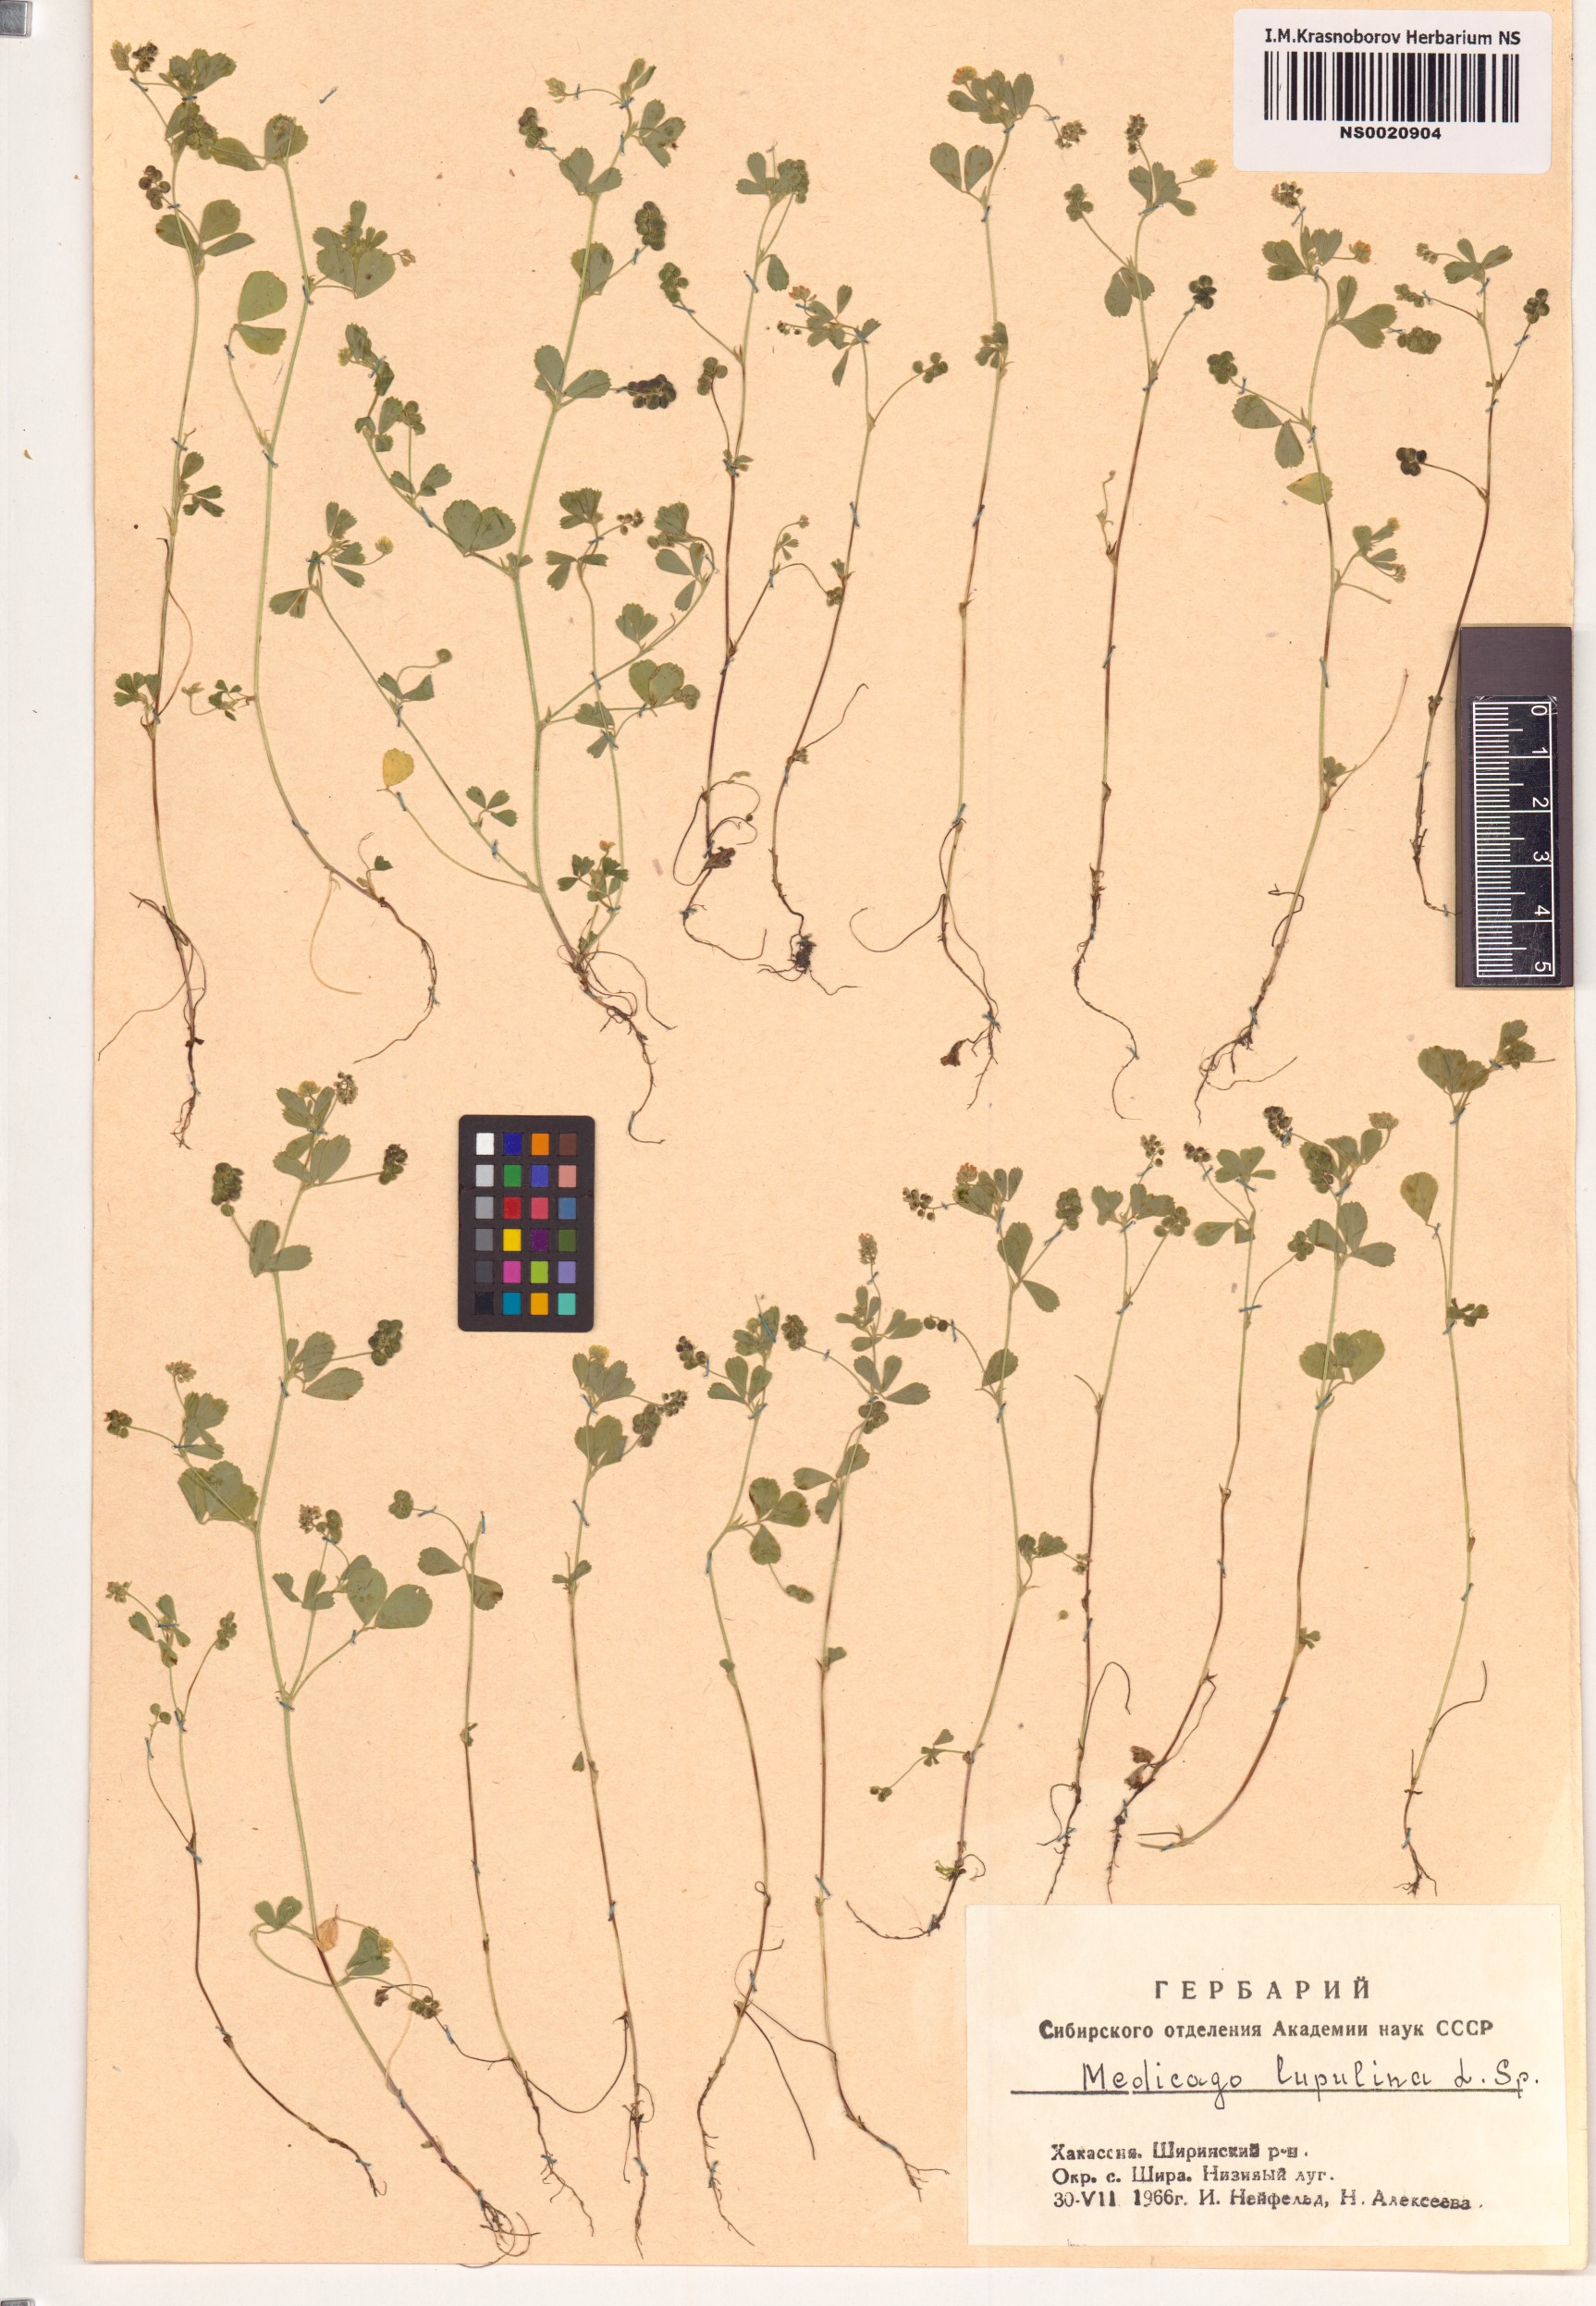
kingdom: Plantae
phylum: Tracheophyta
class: Magnoliopsida
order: Fabales
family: Fabaceae
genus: Medicago
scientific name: Medicago lupulina
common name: Black medick
